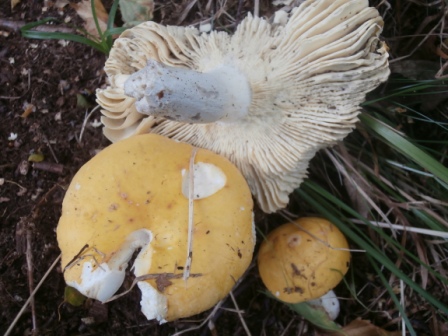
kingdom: Fungi
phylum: Basidiomycota
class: Agaricomycetes
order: Russulales
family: Russulaceae
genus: Russula
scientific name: Russula claroflava
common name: birke-skørhat
